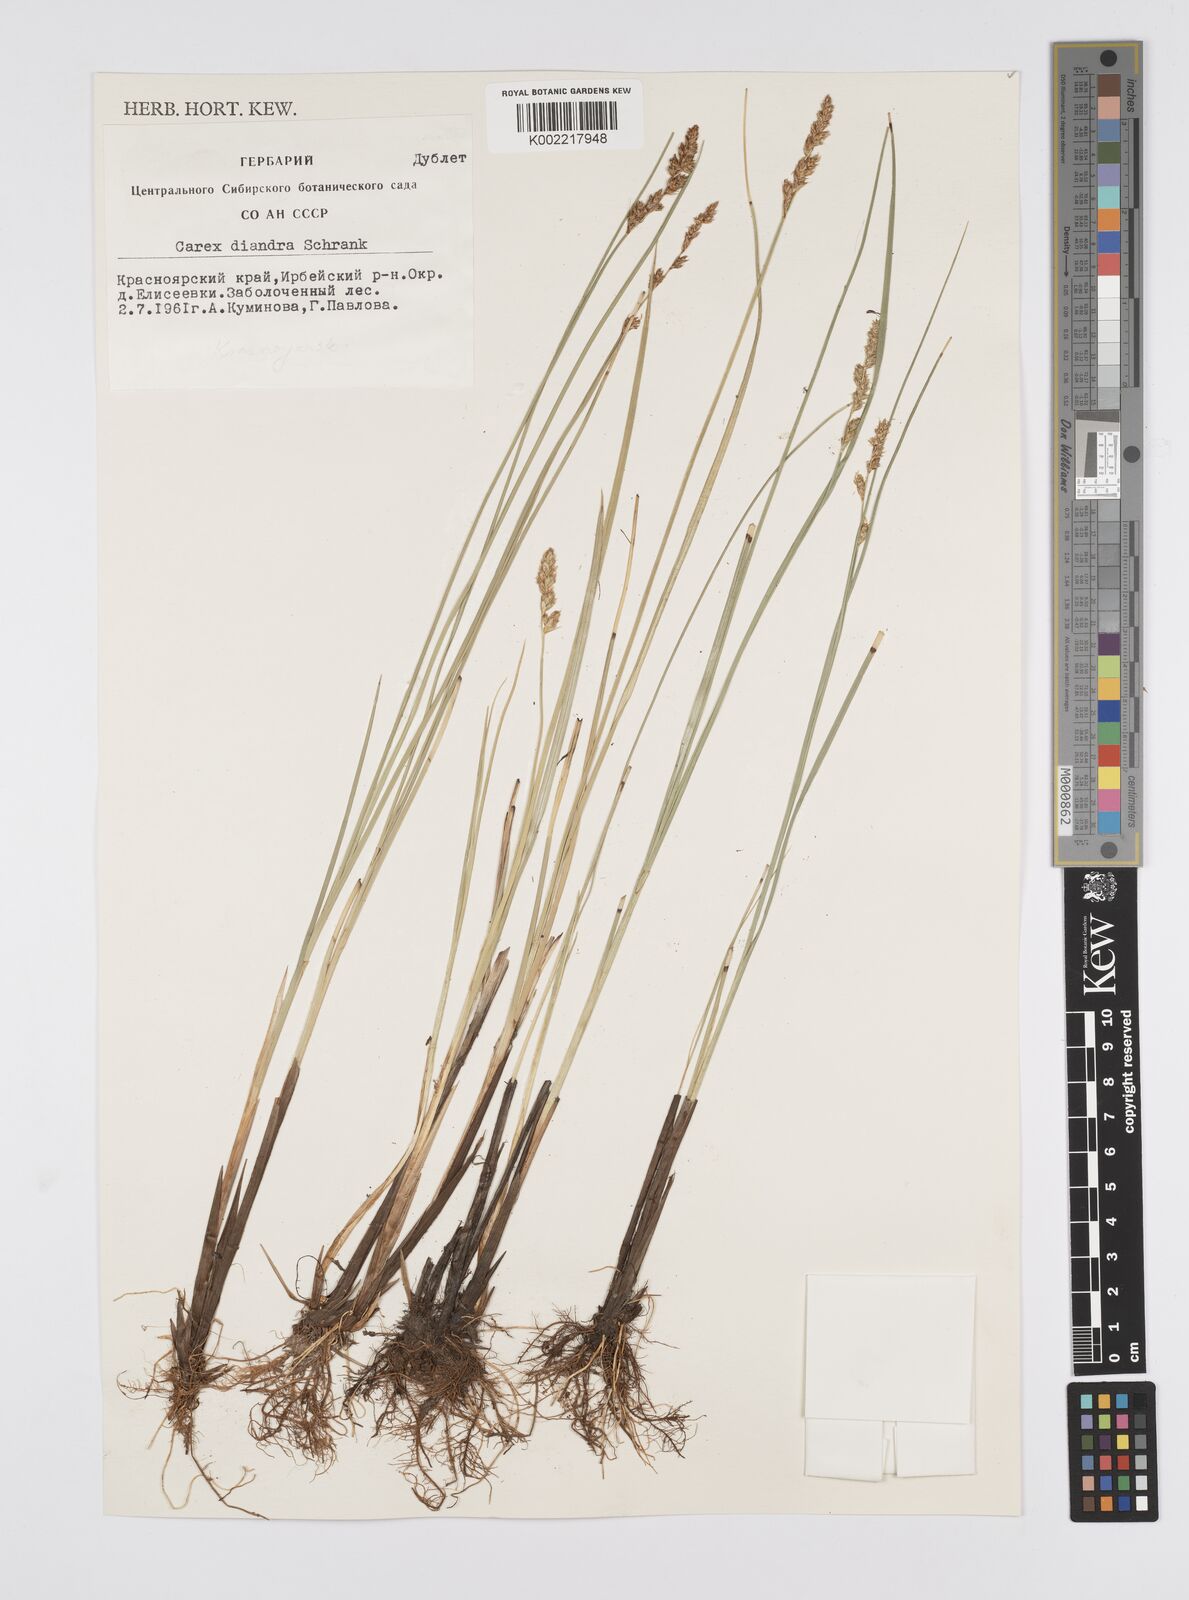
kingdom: Plantae
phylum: Tracheophyta
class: Liliopsida
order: Poales
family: Cyperaceae
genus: Carex
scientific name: Carex diandra
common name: Lesser tussock-sedge
